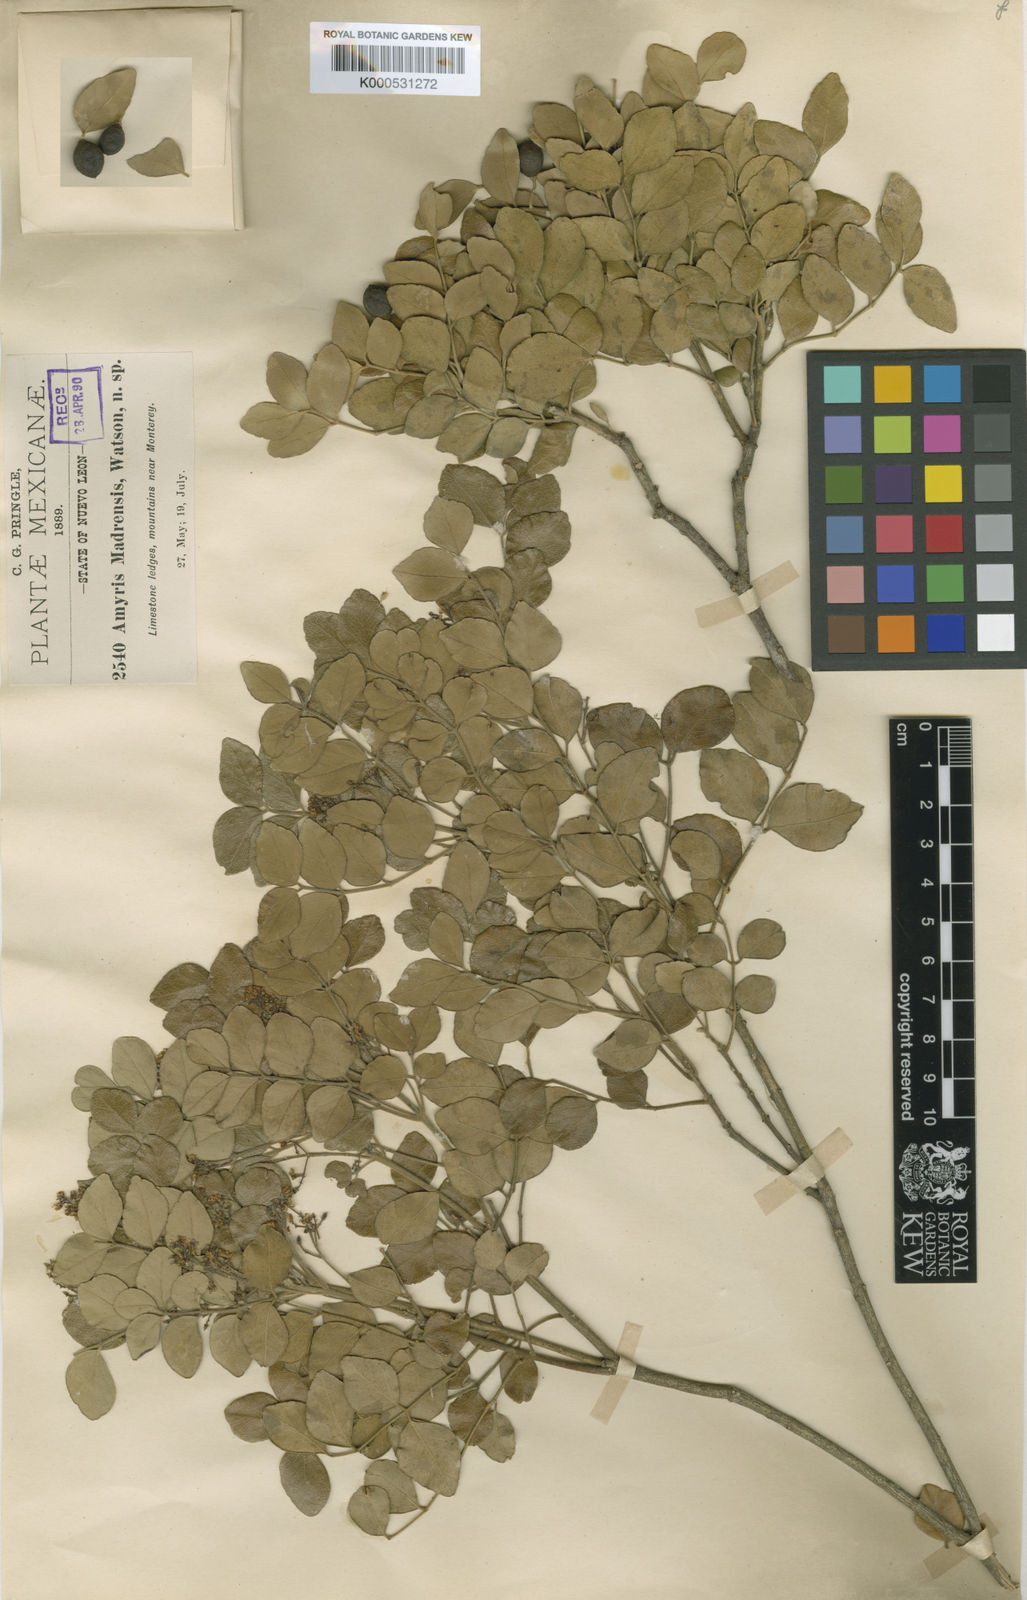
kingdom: Plantae
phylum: Tracheophyta
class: Magnoliopsida
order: Sapindales
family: Rutaceae
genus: Amyris
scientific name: Amyris madrensis
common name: Mountain torchwood
